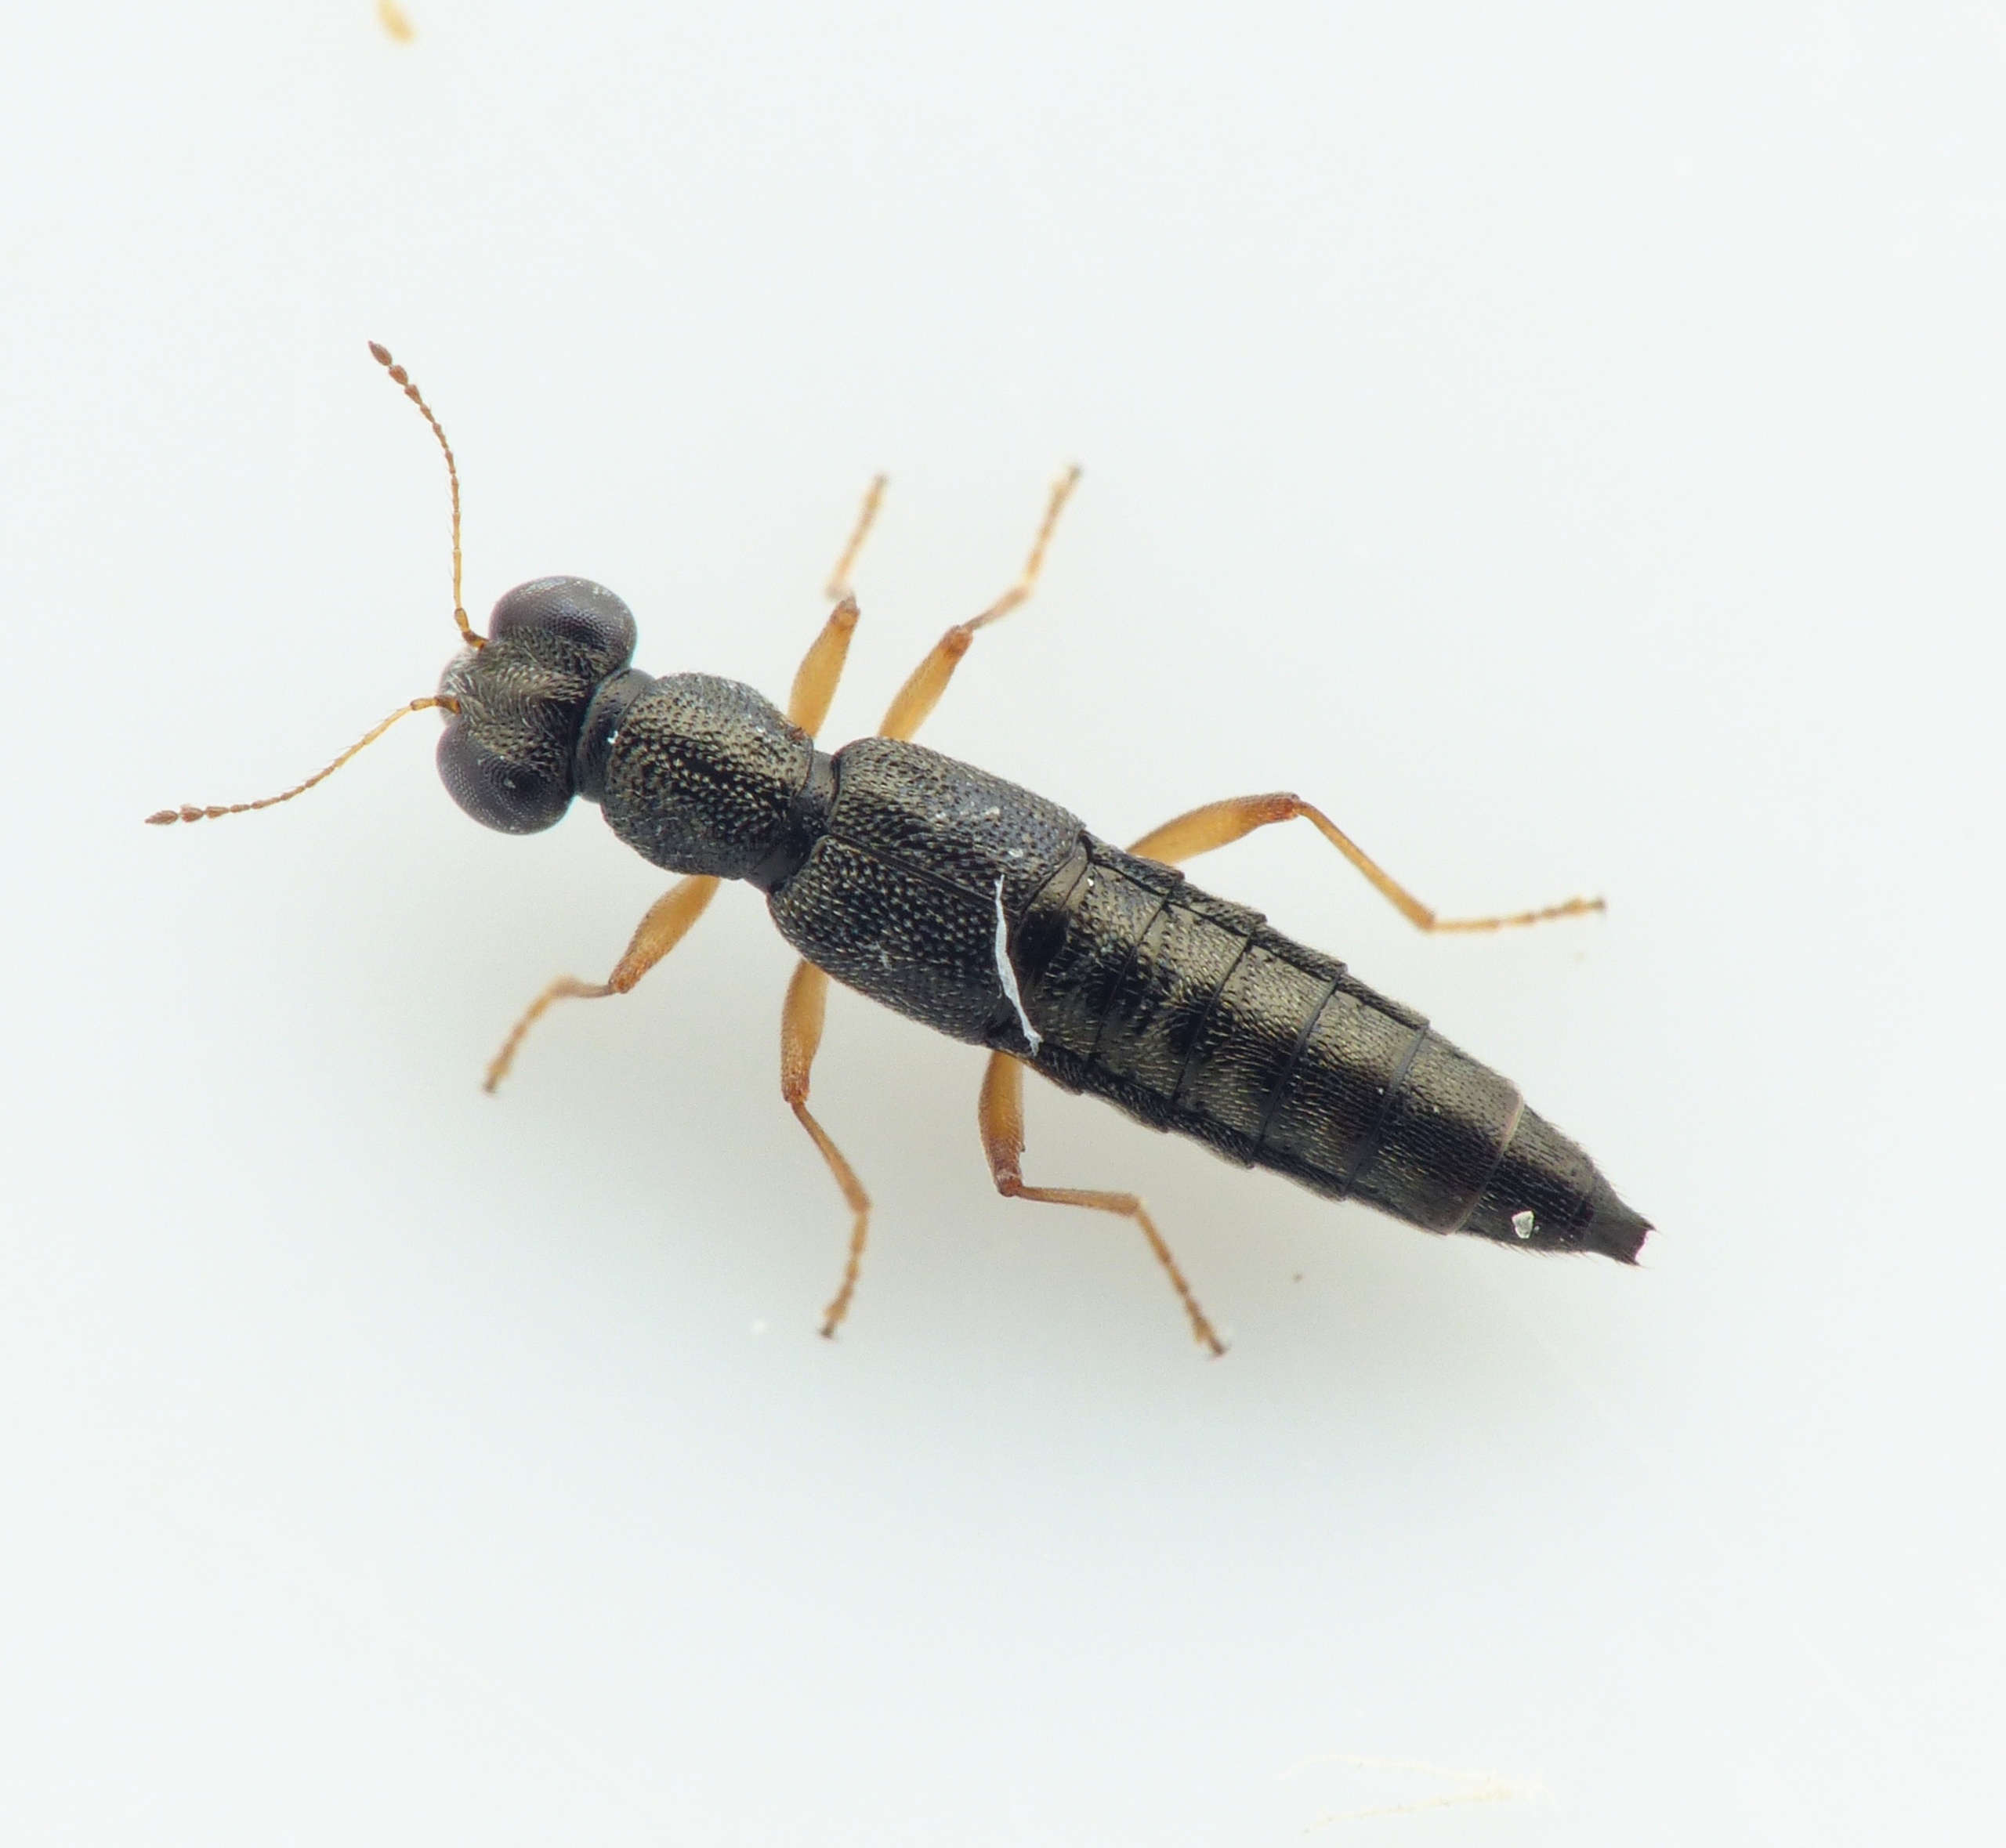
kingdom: Animalia
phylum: Arthropoda
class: Insecta
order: Coleoptera
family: Staphylinidae
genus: Stenus
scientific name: Stenus impressus
